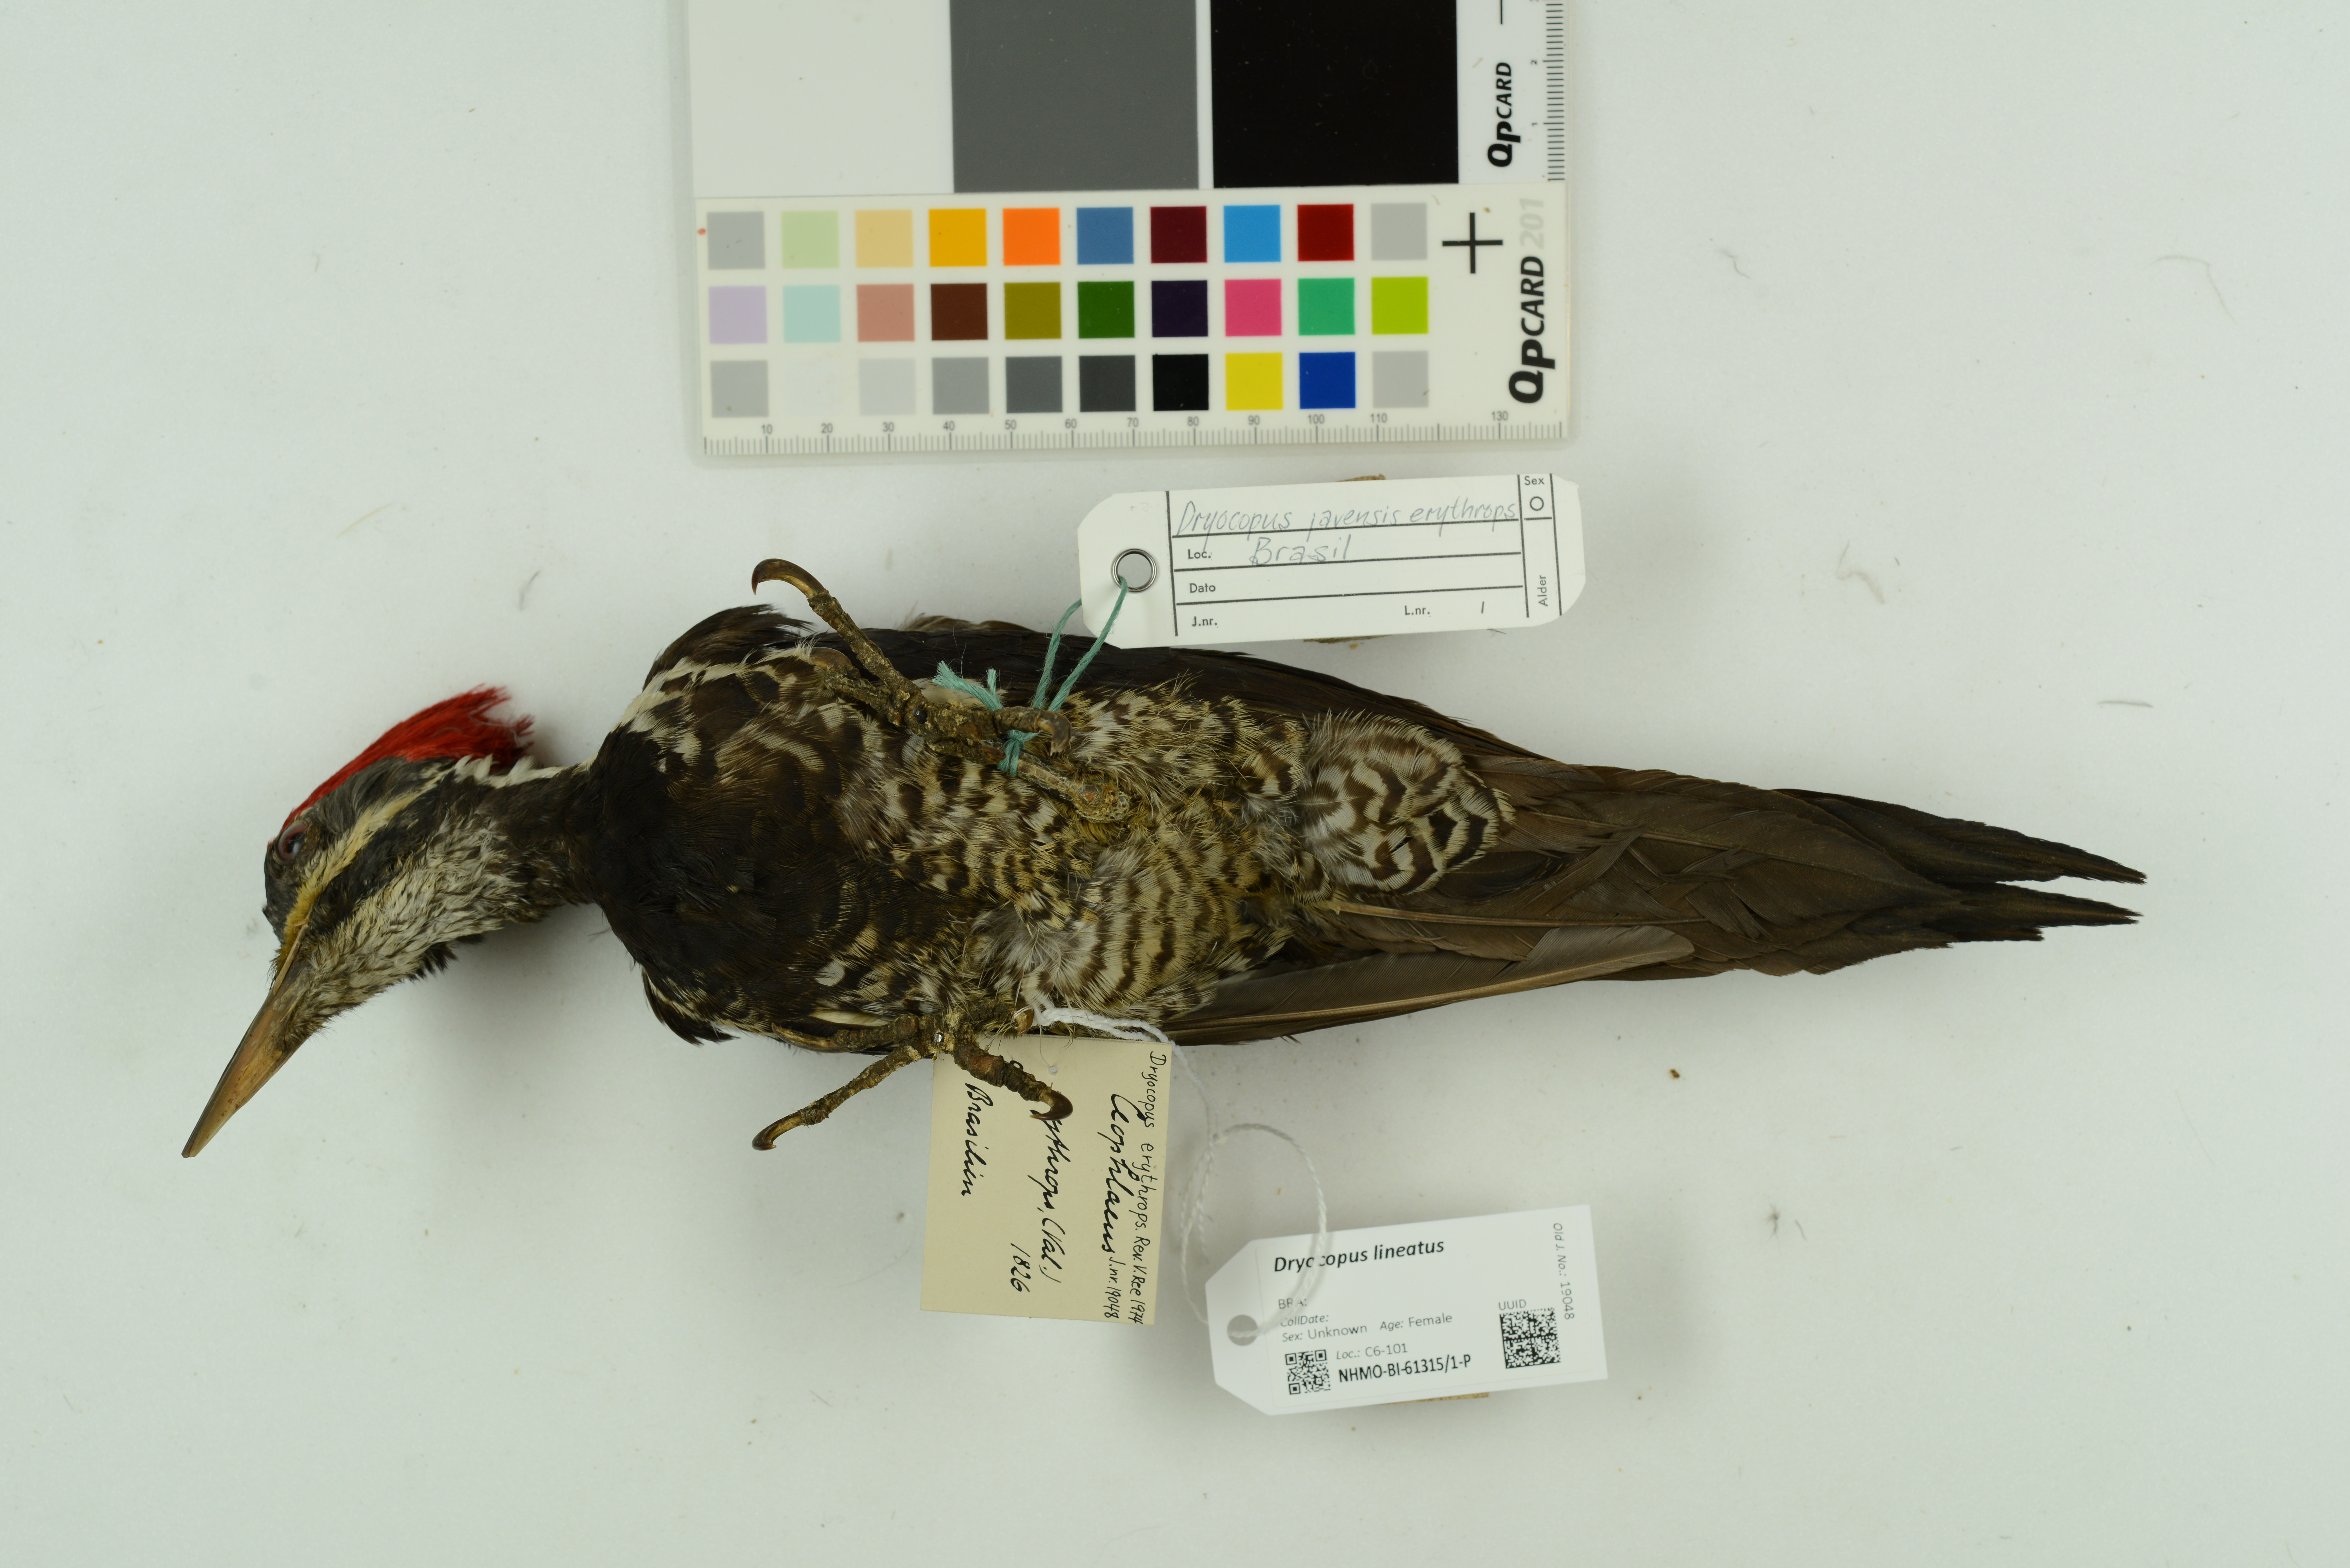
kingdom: Animalia
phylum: Chordata
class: Aves
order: Piciformes
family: Picidae
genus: Dryocopus
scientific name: Dryocopus lineatus
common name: Lineated woodpecker
